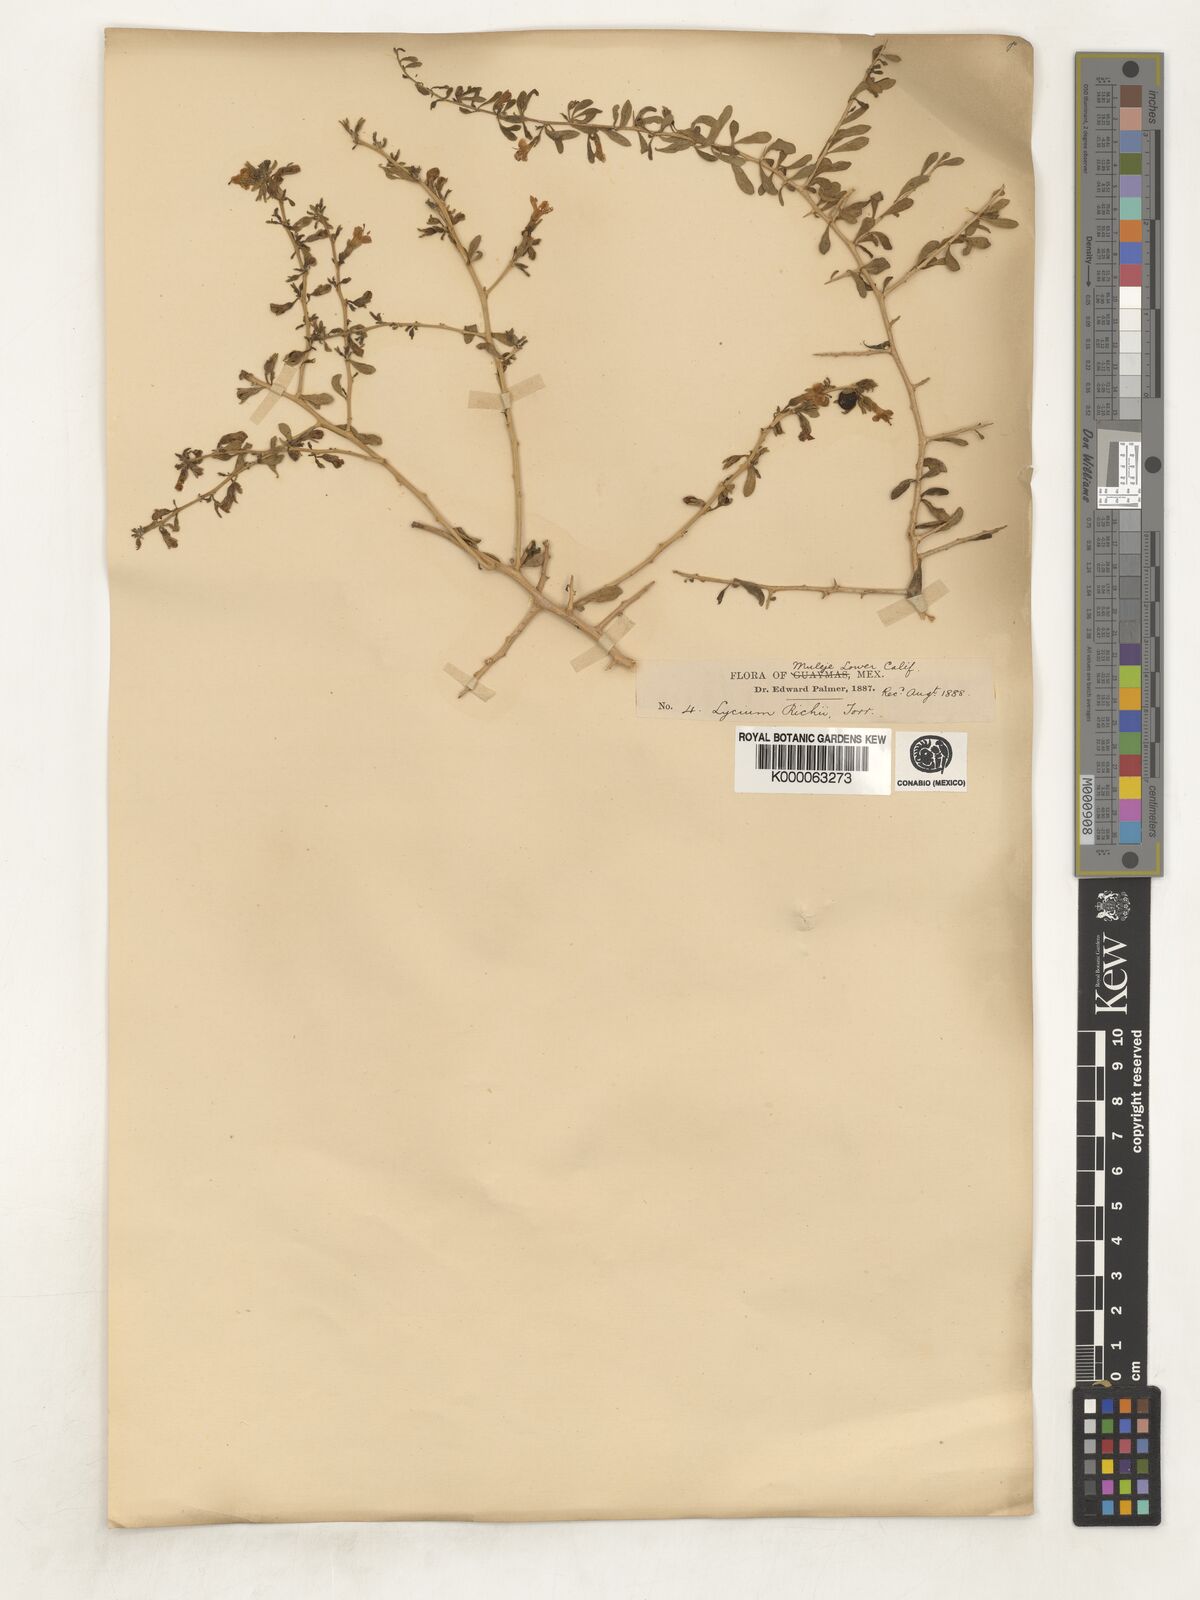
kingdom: Plantae
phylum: Tracheophyta
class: Magnoliopsida
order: Solanales
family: Solanaceae
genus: Lycium
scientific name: Lycium brevipes
